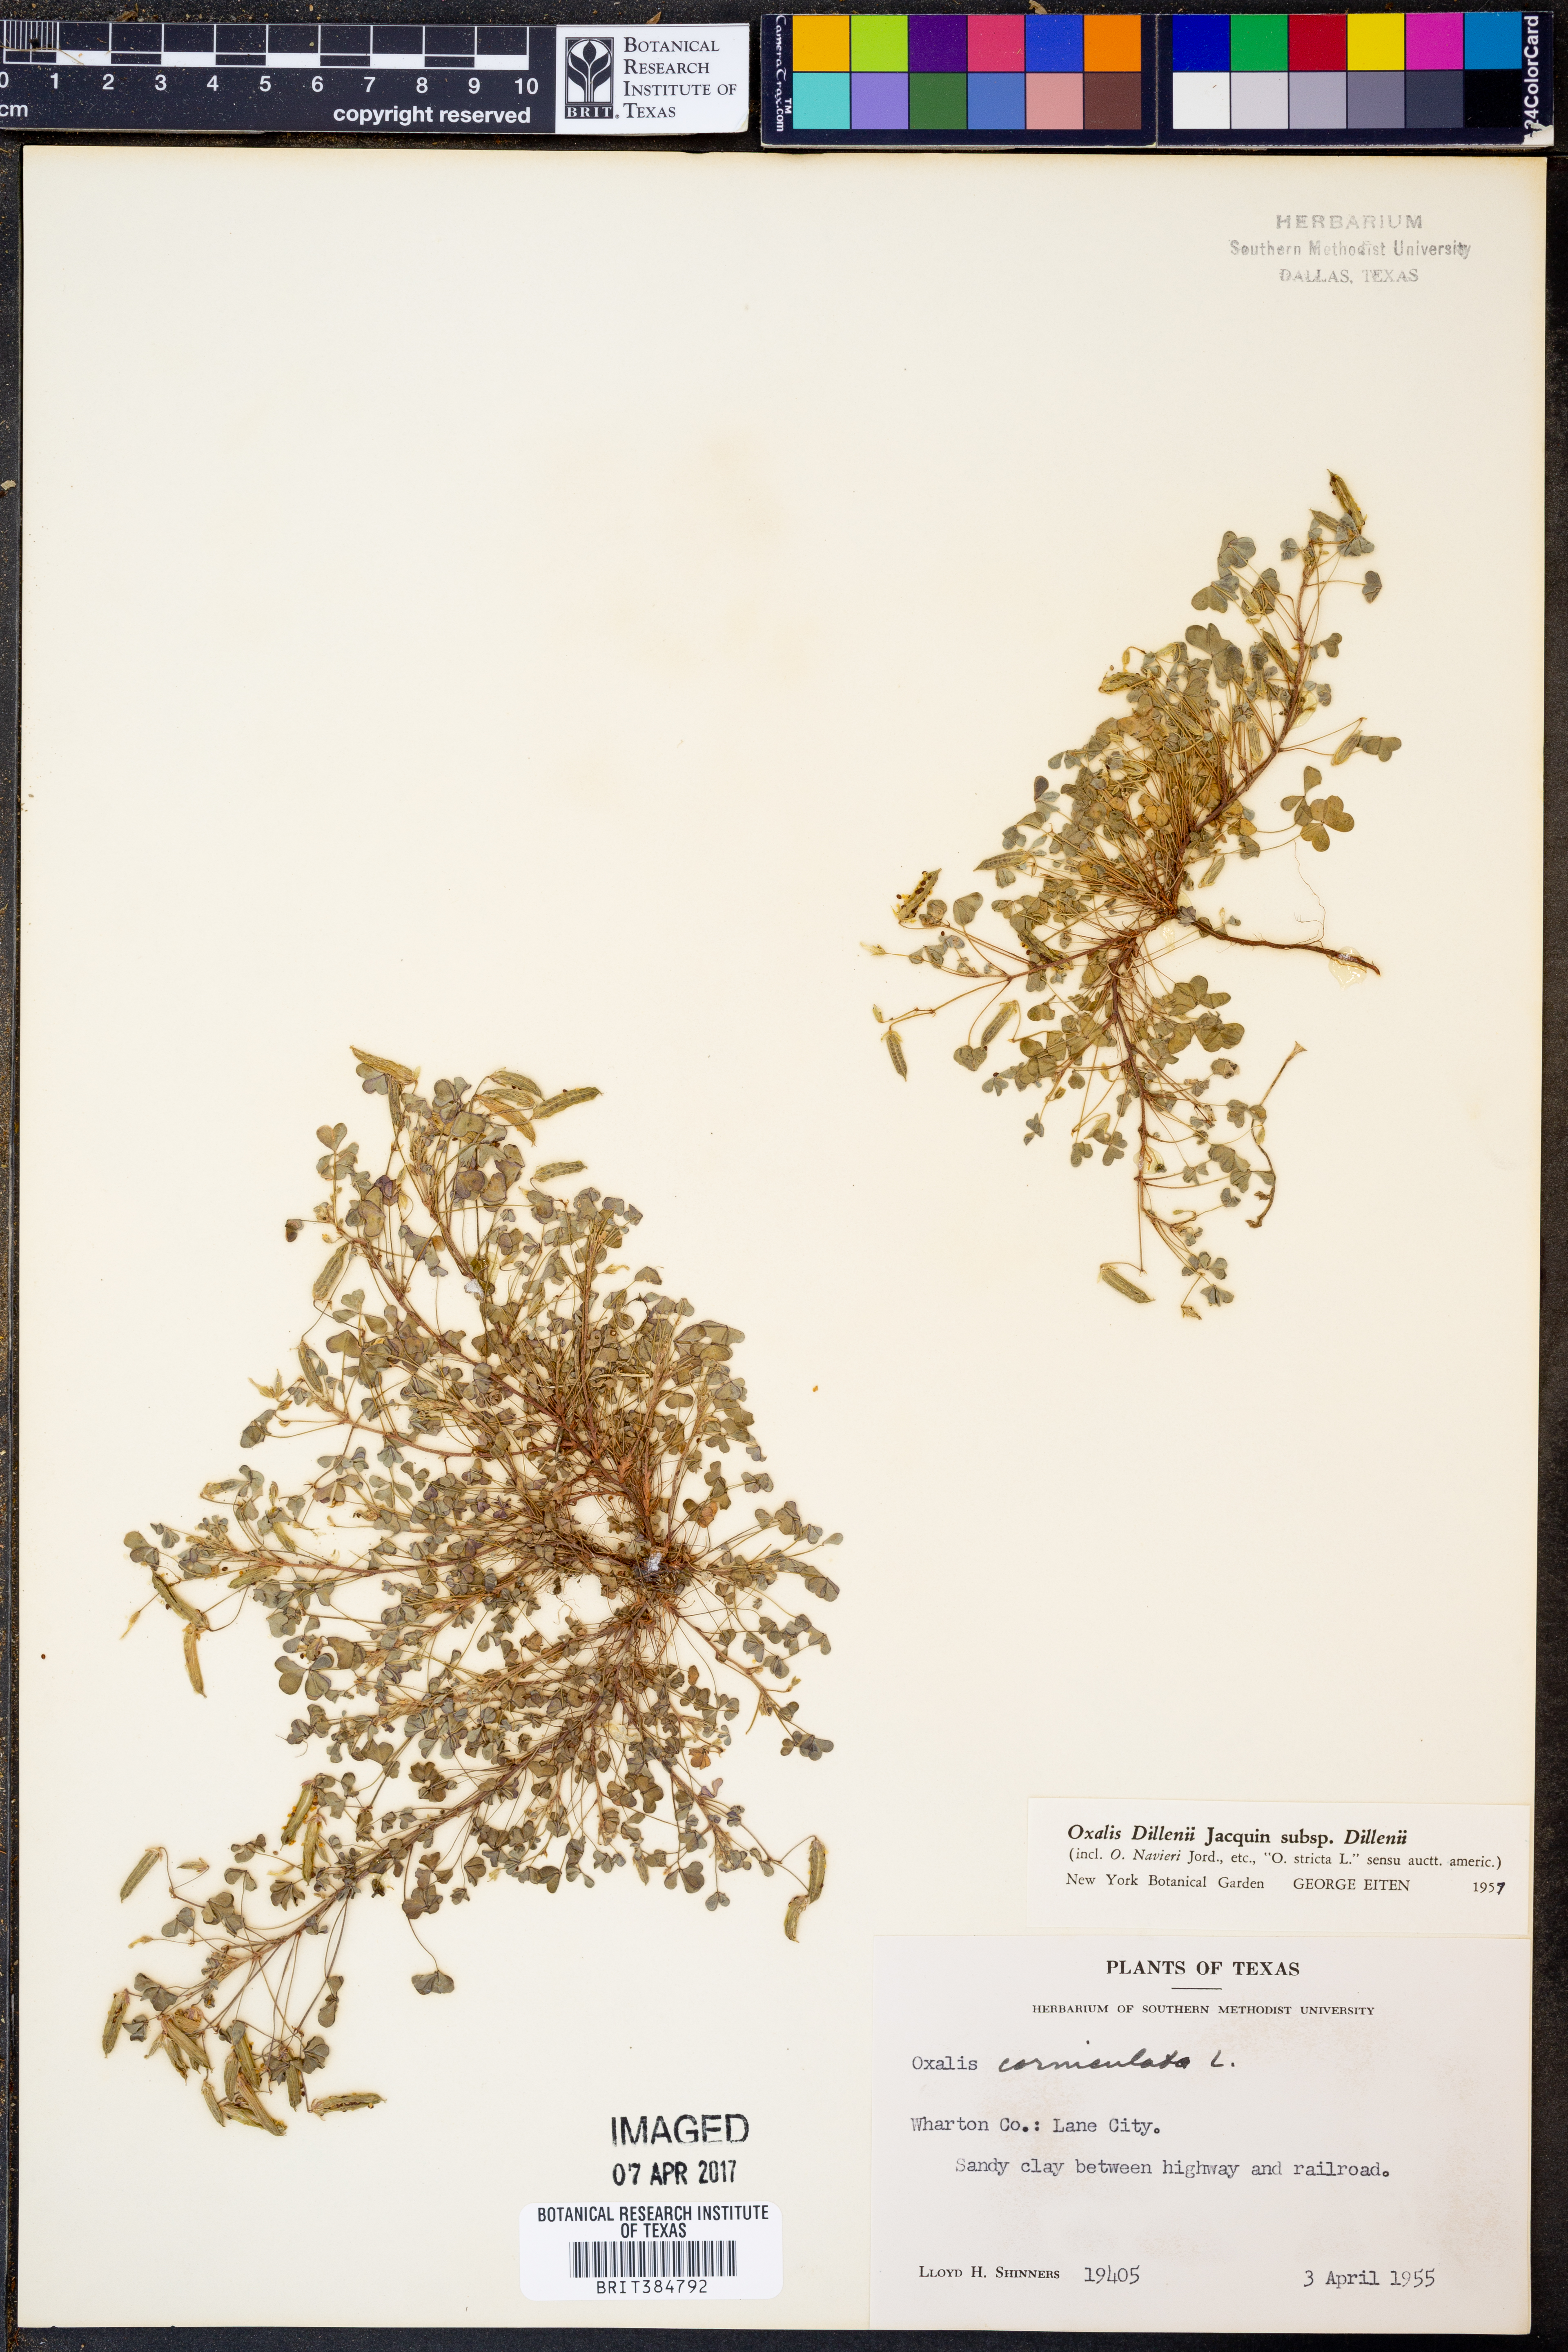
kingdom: Plantae
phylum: Tracheophyta
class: Magnoliopsida
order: Oxalidales
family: Oxalidaceae
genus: Oxalis
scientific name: Oxalis dillenii
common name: Sussex yellow-sorrel
